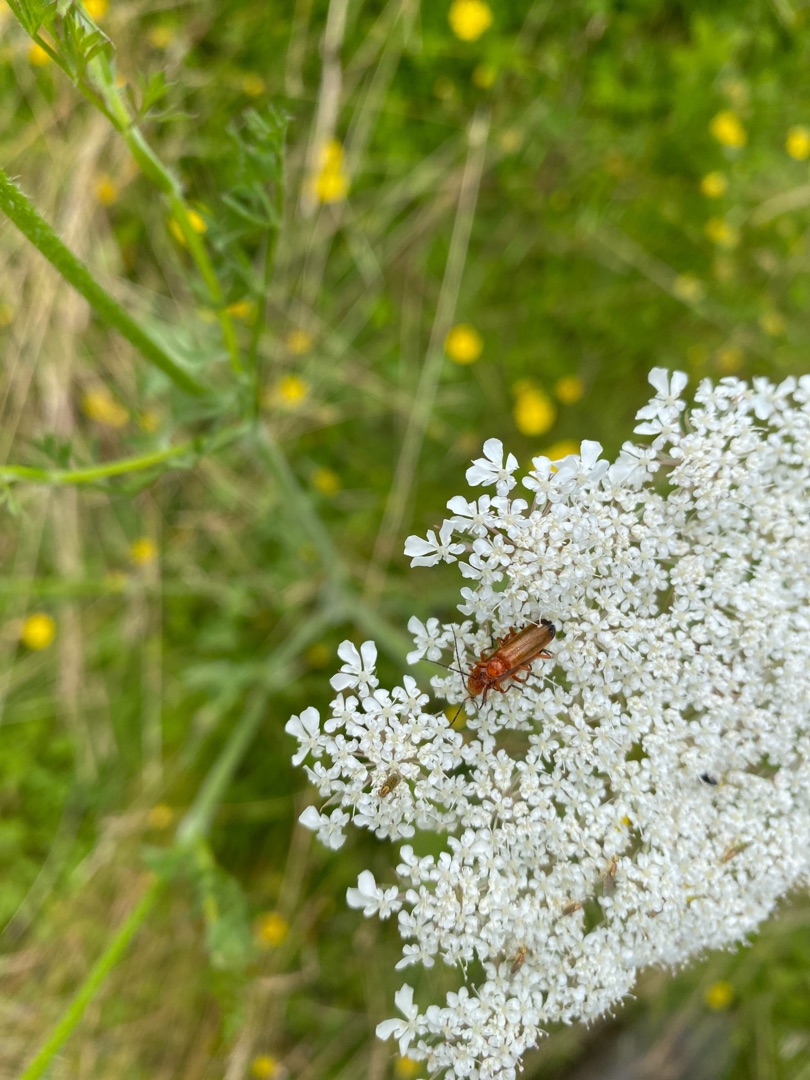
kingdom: Animalia
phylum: Arthropoda
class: Insecta
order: Coleoptera
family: Cantharidae
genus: Rhagonycha
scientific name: Rhagonycha fulva
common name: Præstebille
